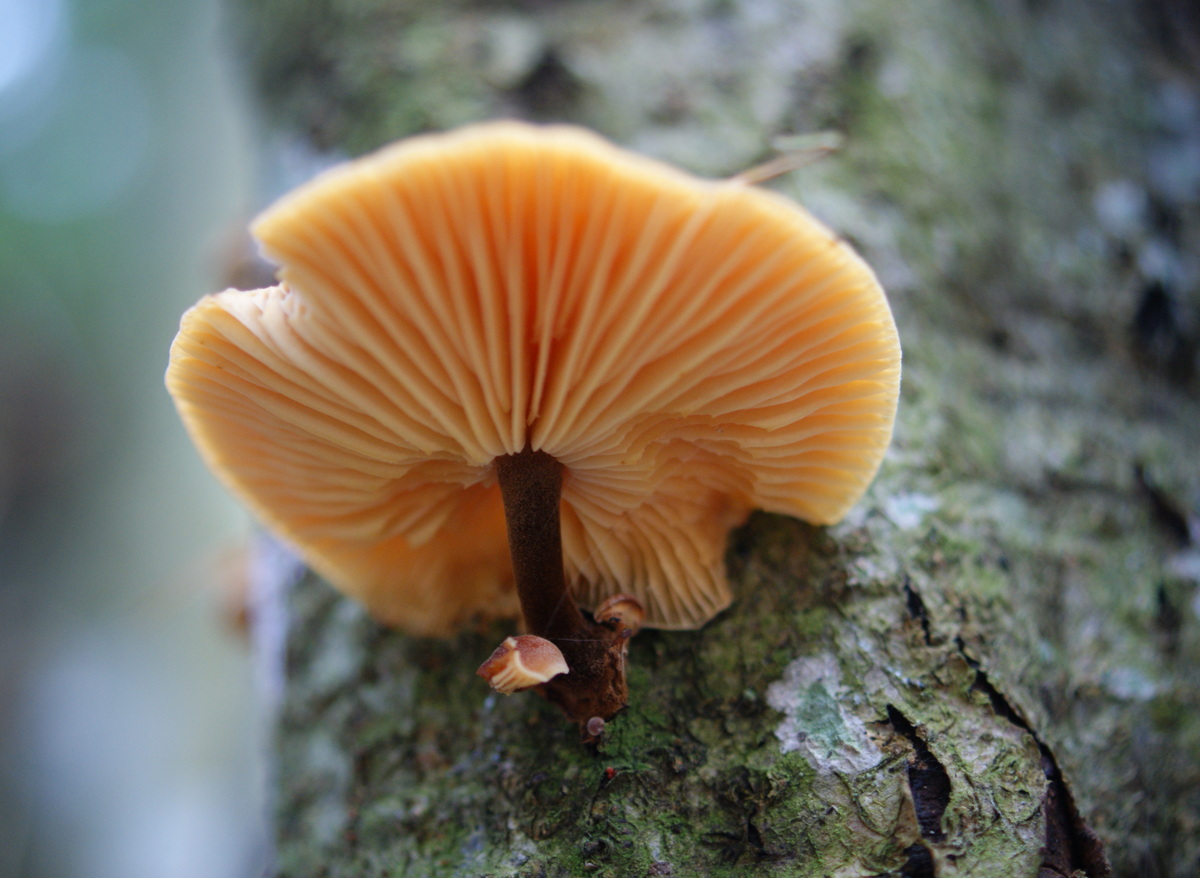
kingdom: Fungi
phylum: Basidiomycota
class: Agaricomycetes
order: Agaricales
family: Physalacriaceae
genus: Flammulina
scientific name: Flammulina velutipes
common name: gul fløjlsfod
